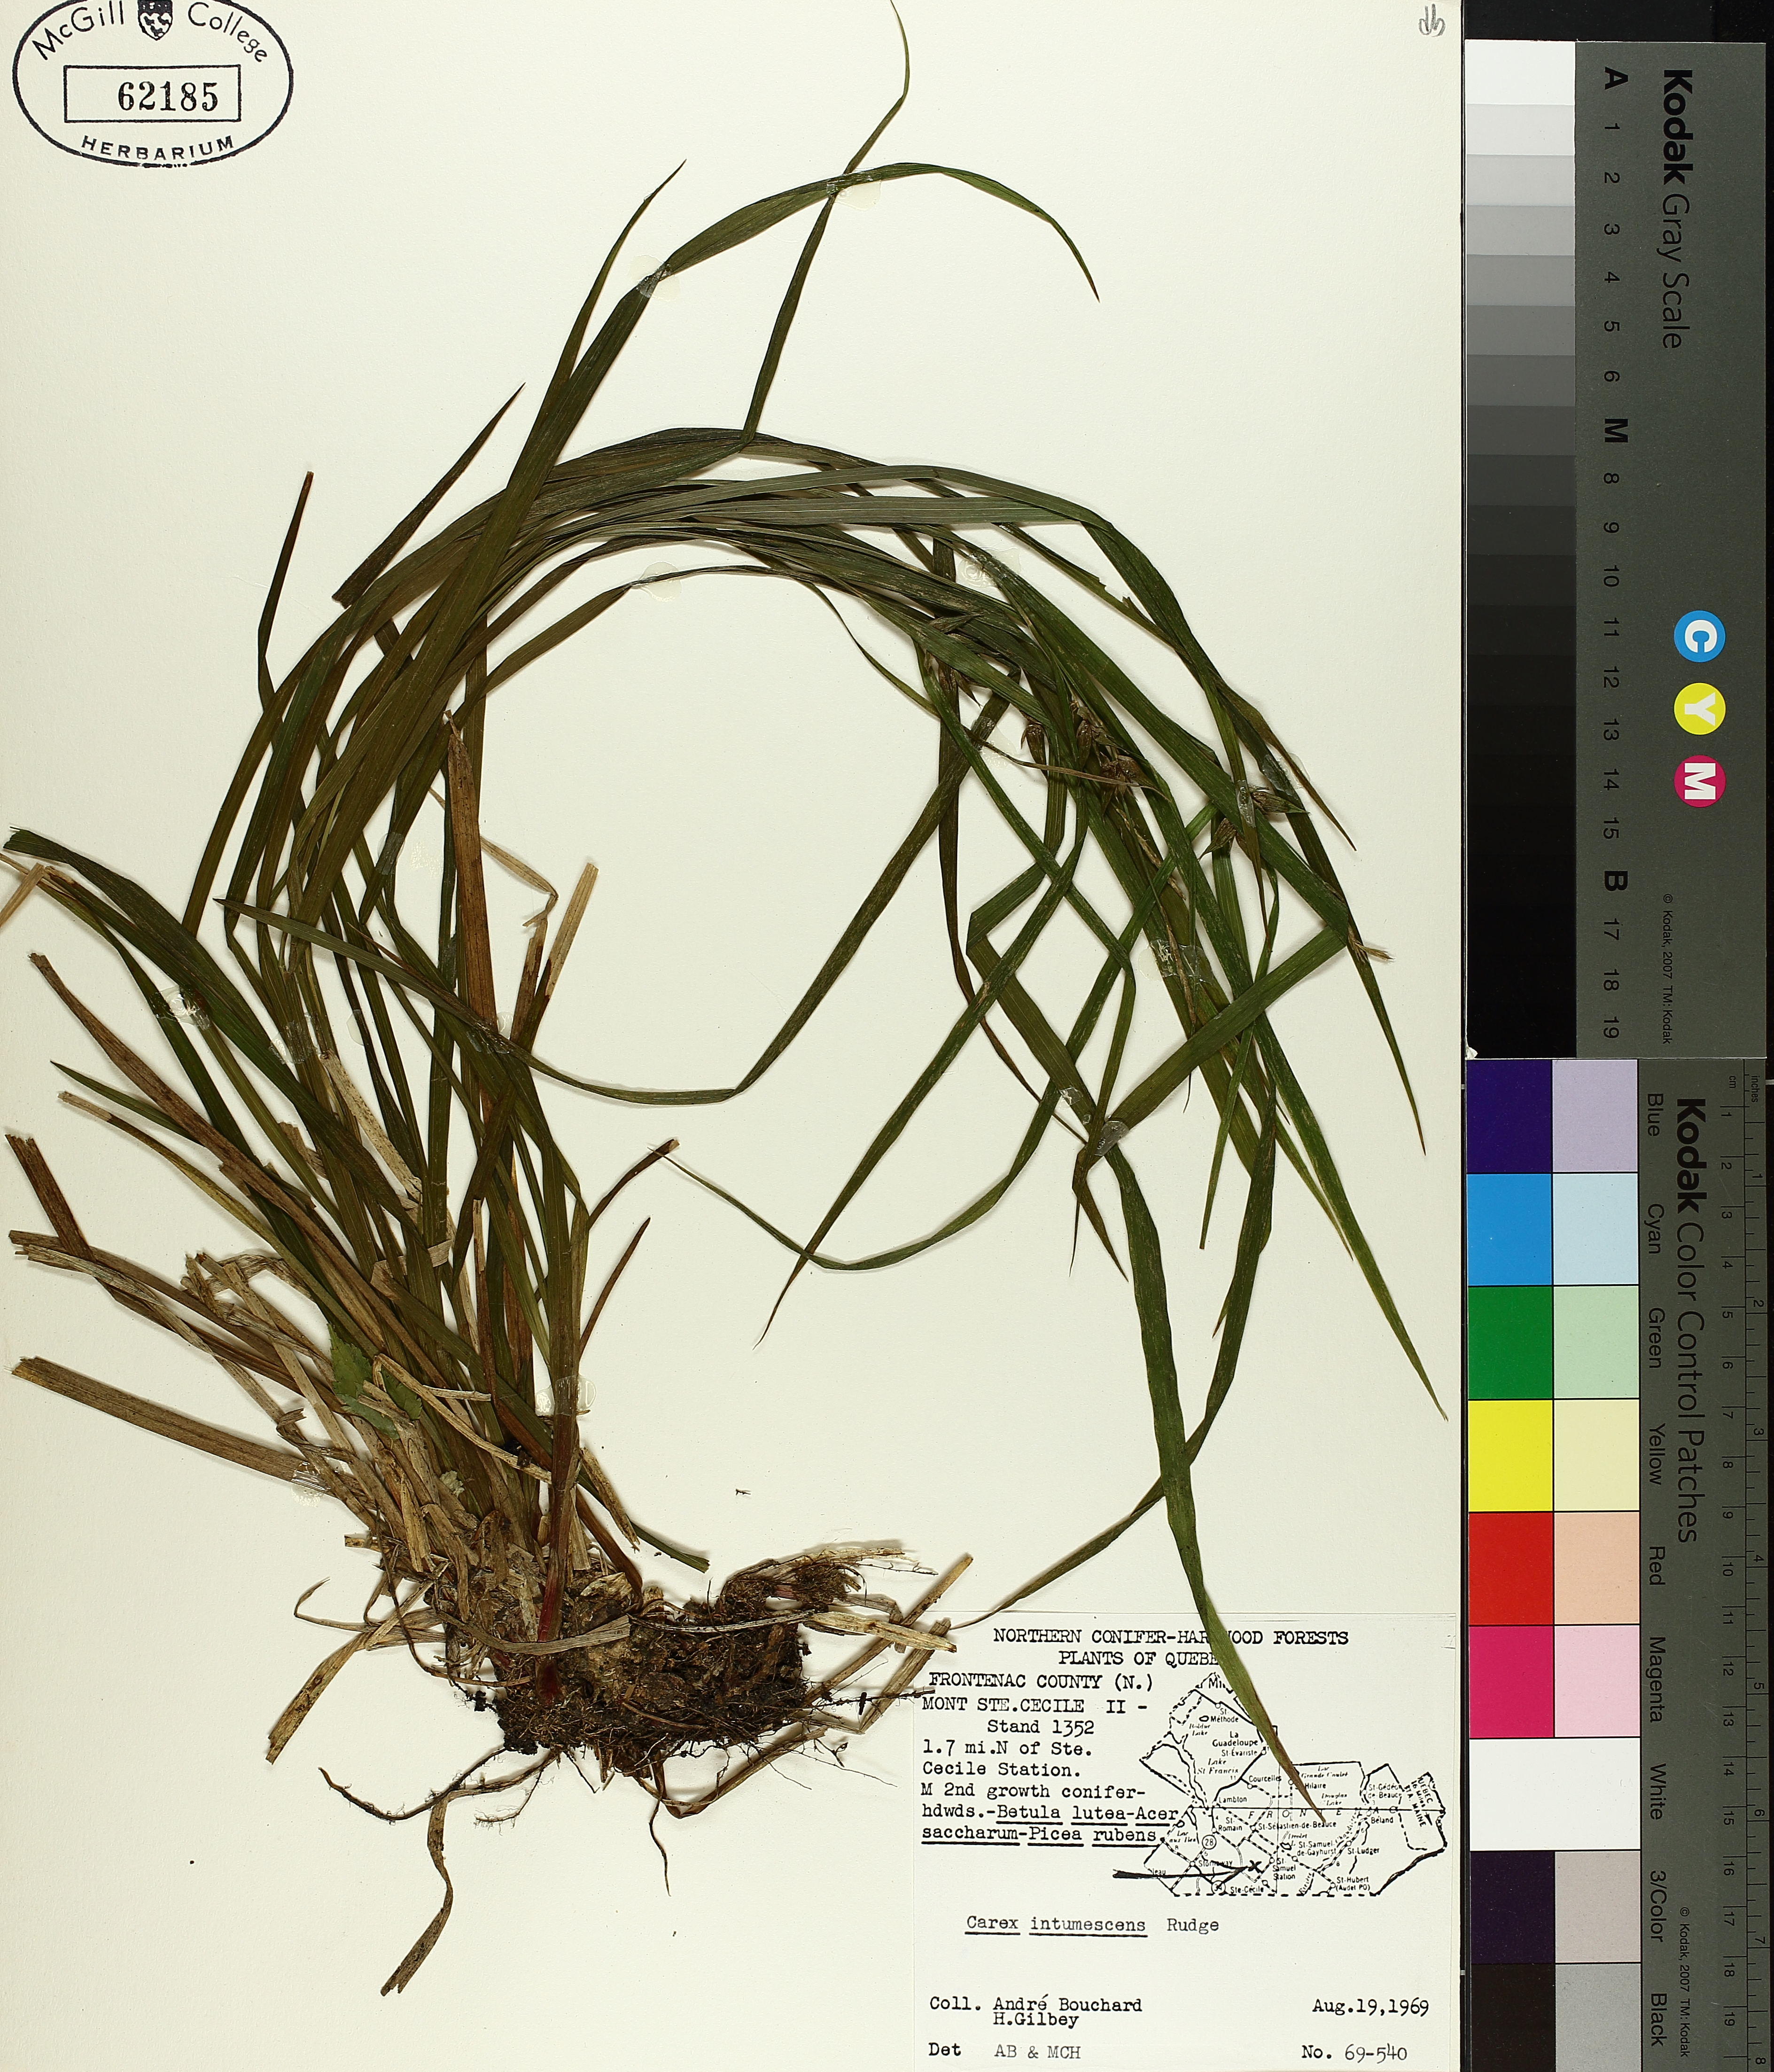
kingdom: Plantae
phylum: Tracheophyta
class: Liliopsida
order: Poales
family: Cyperaceae
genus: Carex
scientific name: Carex intumescens
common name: Greater bladder sedge
